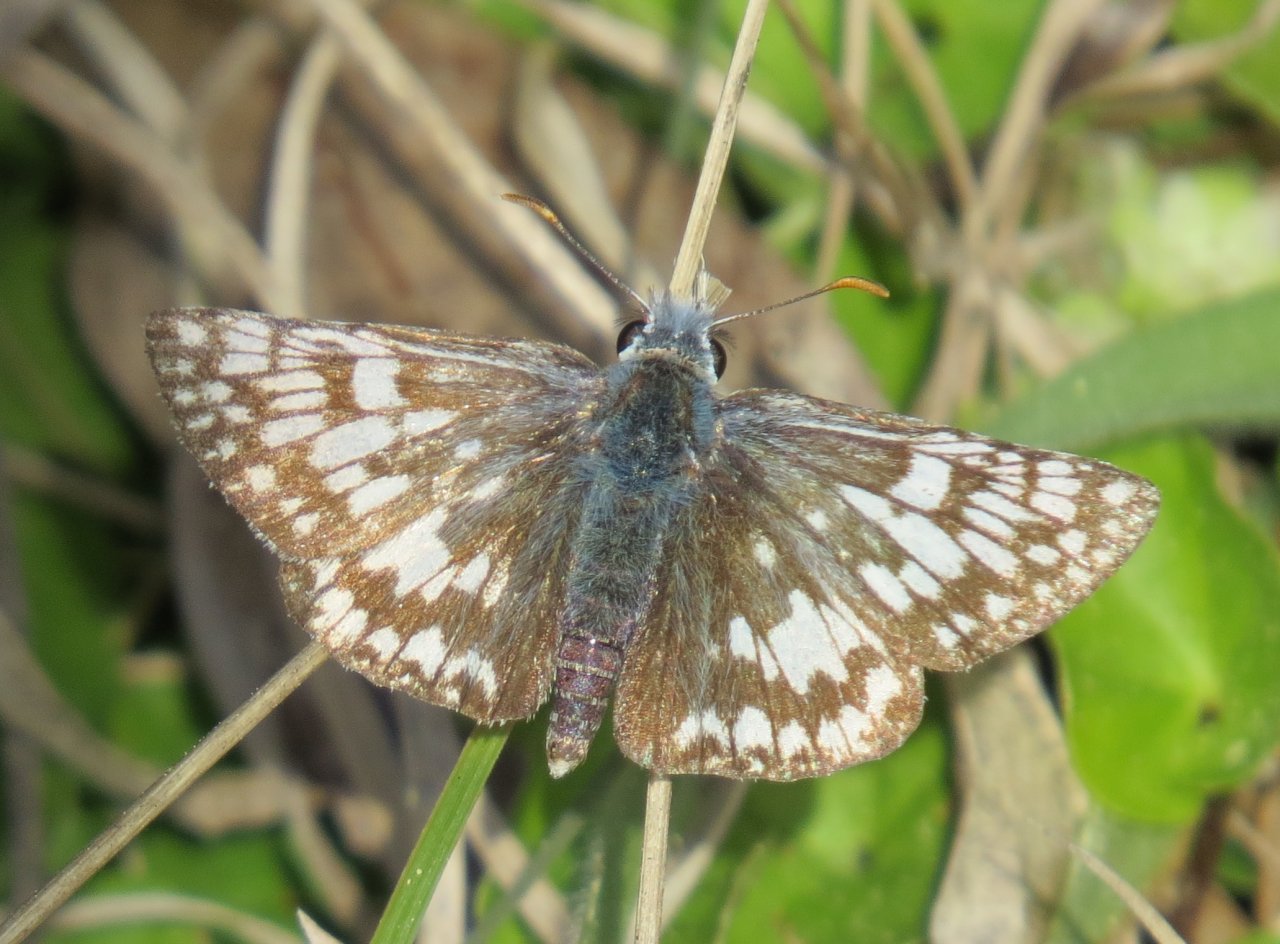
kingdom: Animalia
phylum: Arthropoda
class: Insecta
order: Lepidoptera
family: Hesperiidae
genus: Pyrgus
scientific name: Pyrgus communis
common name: White Checkered-Skipper
